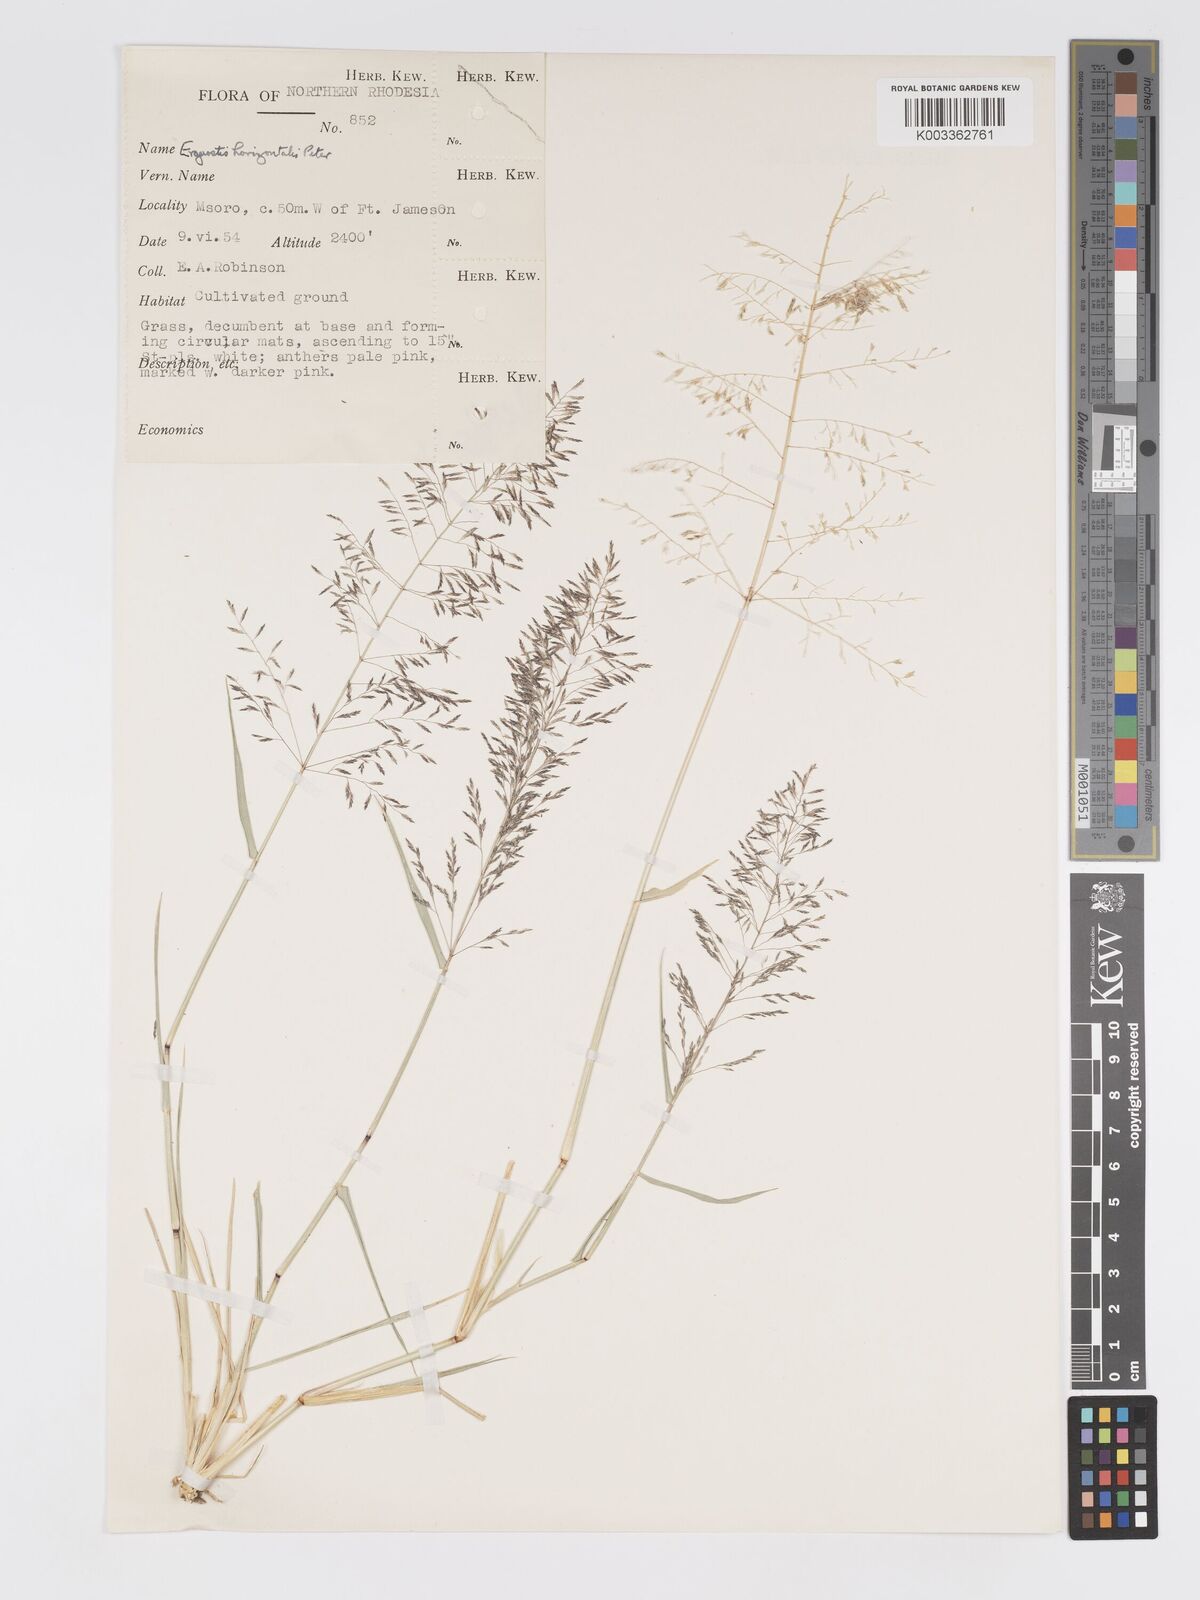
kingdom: Plantae
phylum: Tracheophyta
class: Liliopsida
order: Poales
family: Poaceae
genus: Eragrostis
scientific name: Eragrostis cylindriflora
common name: Cylinderflower lovegrass
